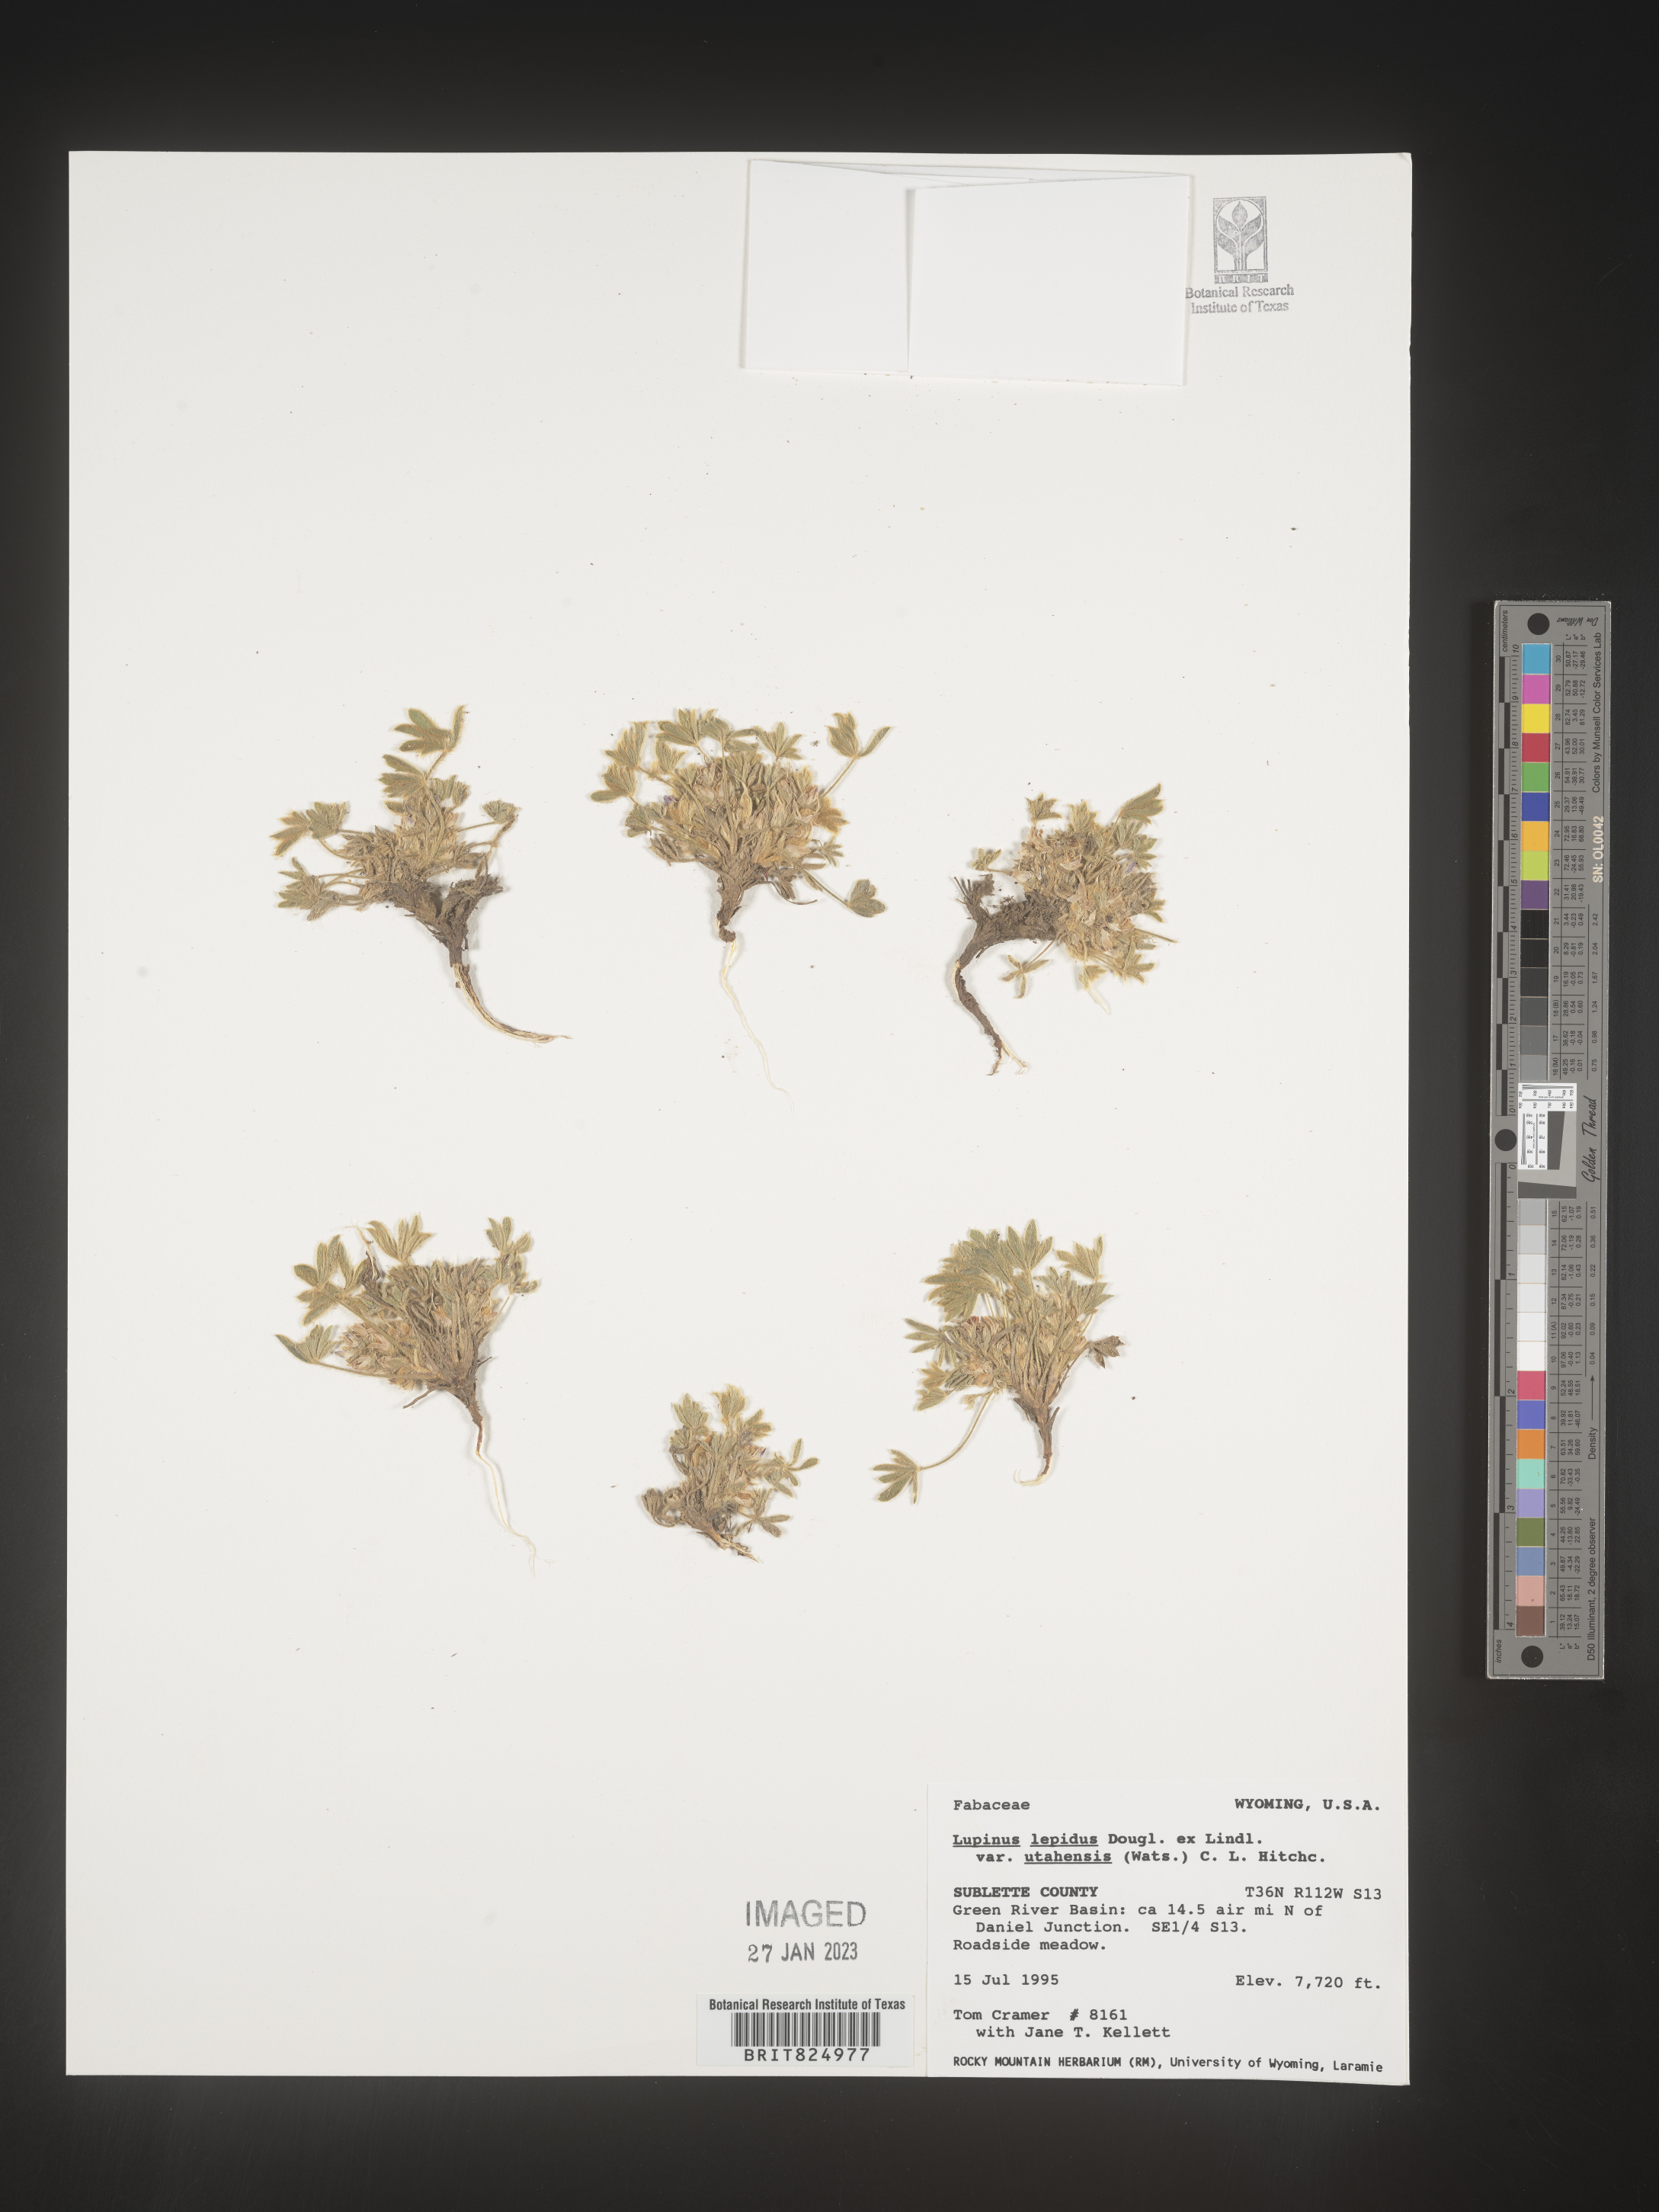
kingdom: Plantae
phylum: Tracheophyta
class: Magnoliopsida
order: Fabales
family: Fabaceae
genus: Lupinus
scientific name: Lupinus
